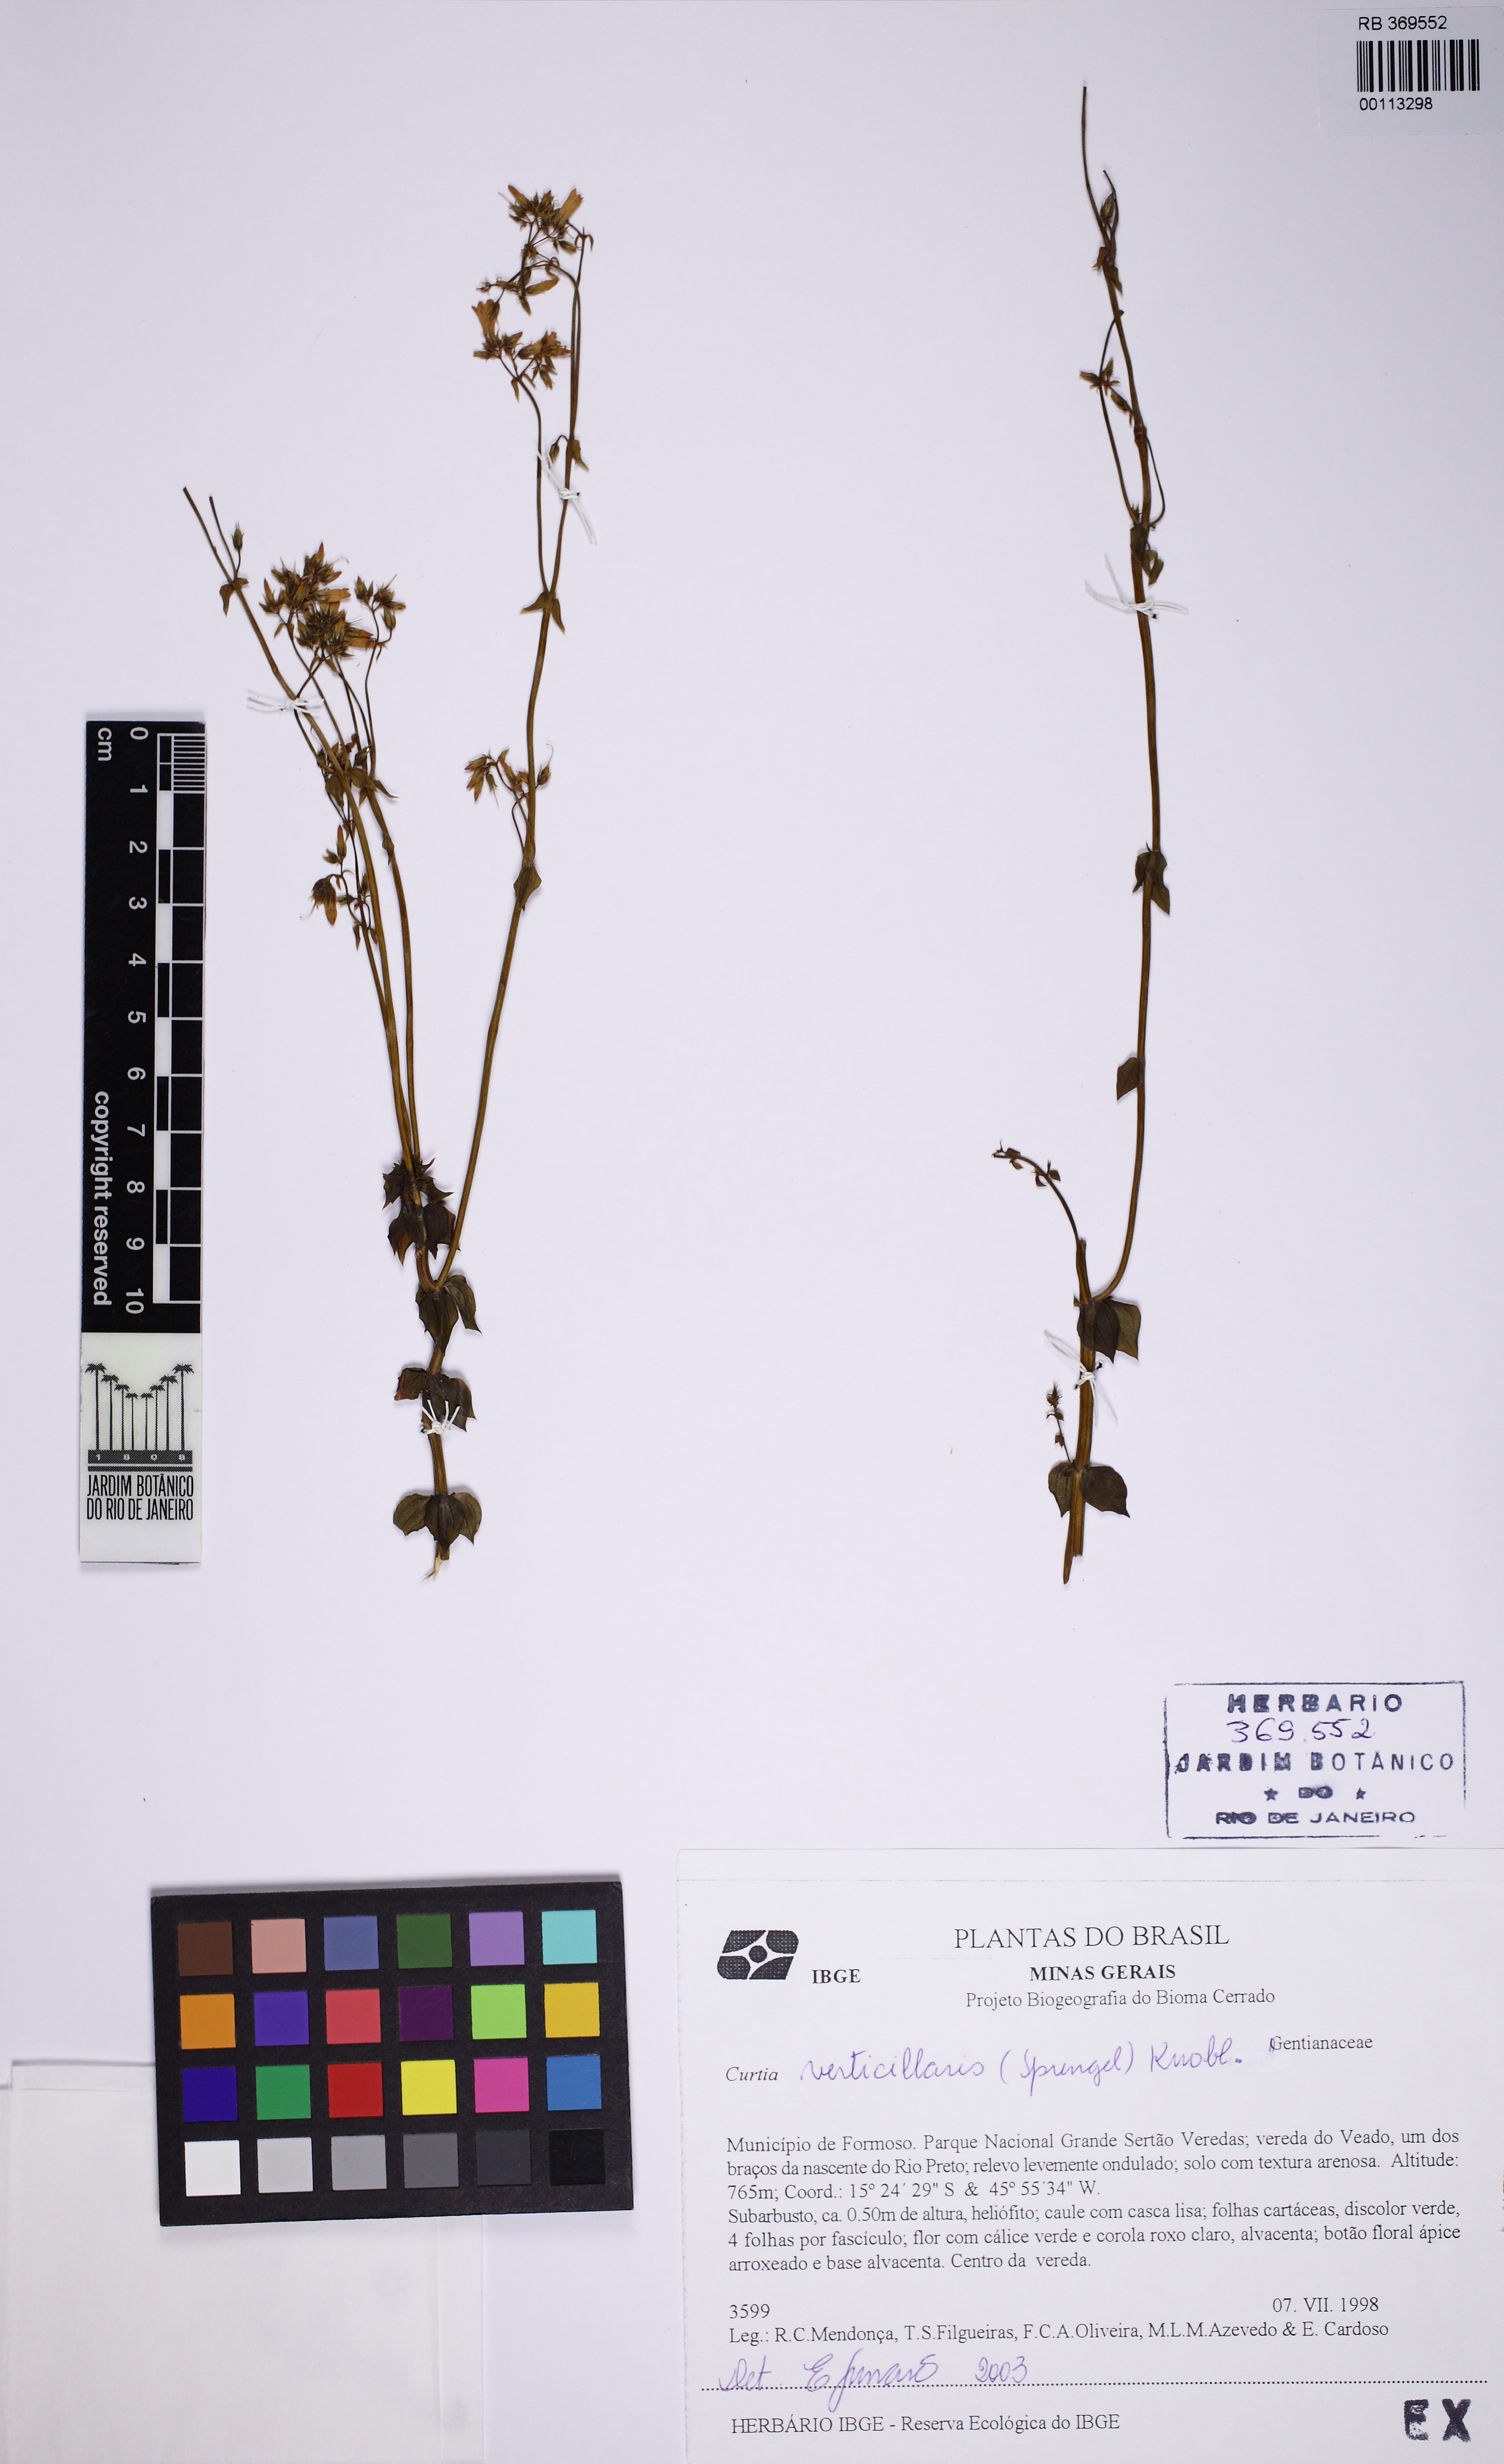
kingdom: Plantae
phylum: Tracheophyta
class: Magnoliopsida
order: Gentianales
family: Gentianaceae
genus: Curtia
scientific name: Curtia verticillaris
